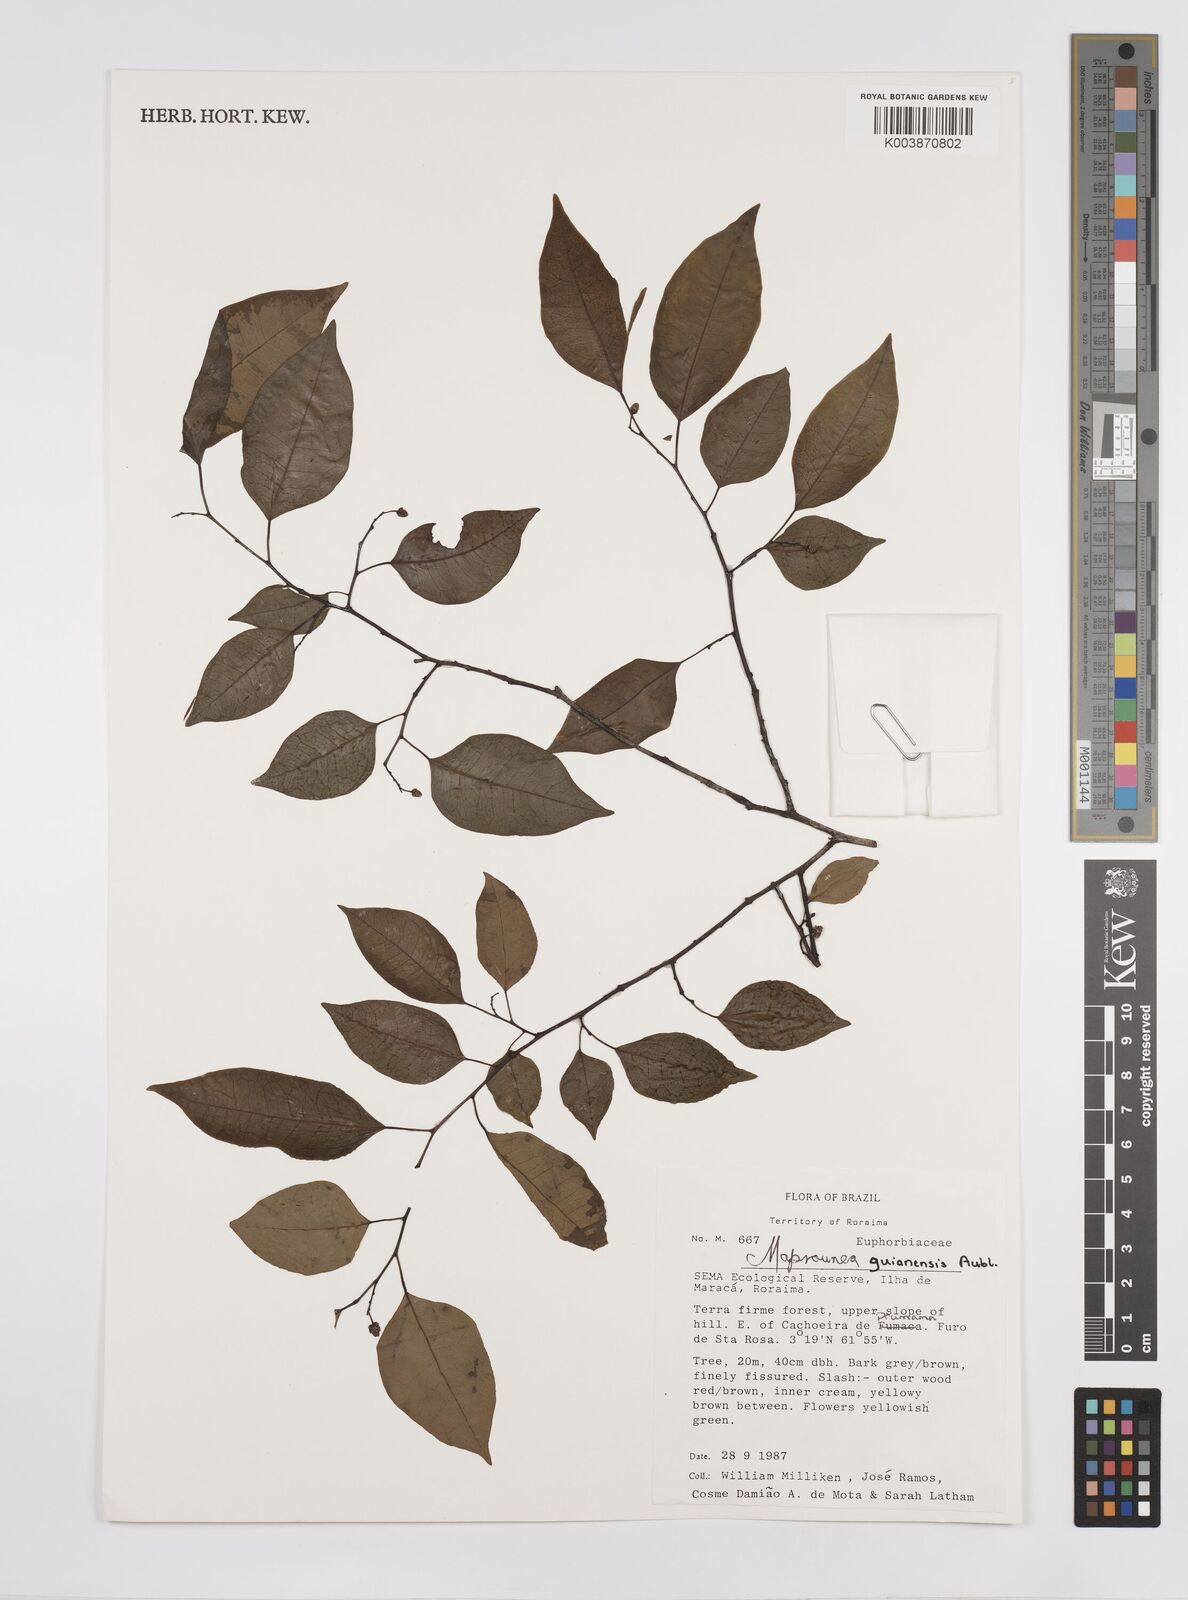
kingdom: Plantae
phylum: Tracheophyta
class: Magnoliopsida
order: Malpighiales
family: Euphorbiaceae
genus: Maprounea
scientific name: Maprounea guianensis
